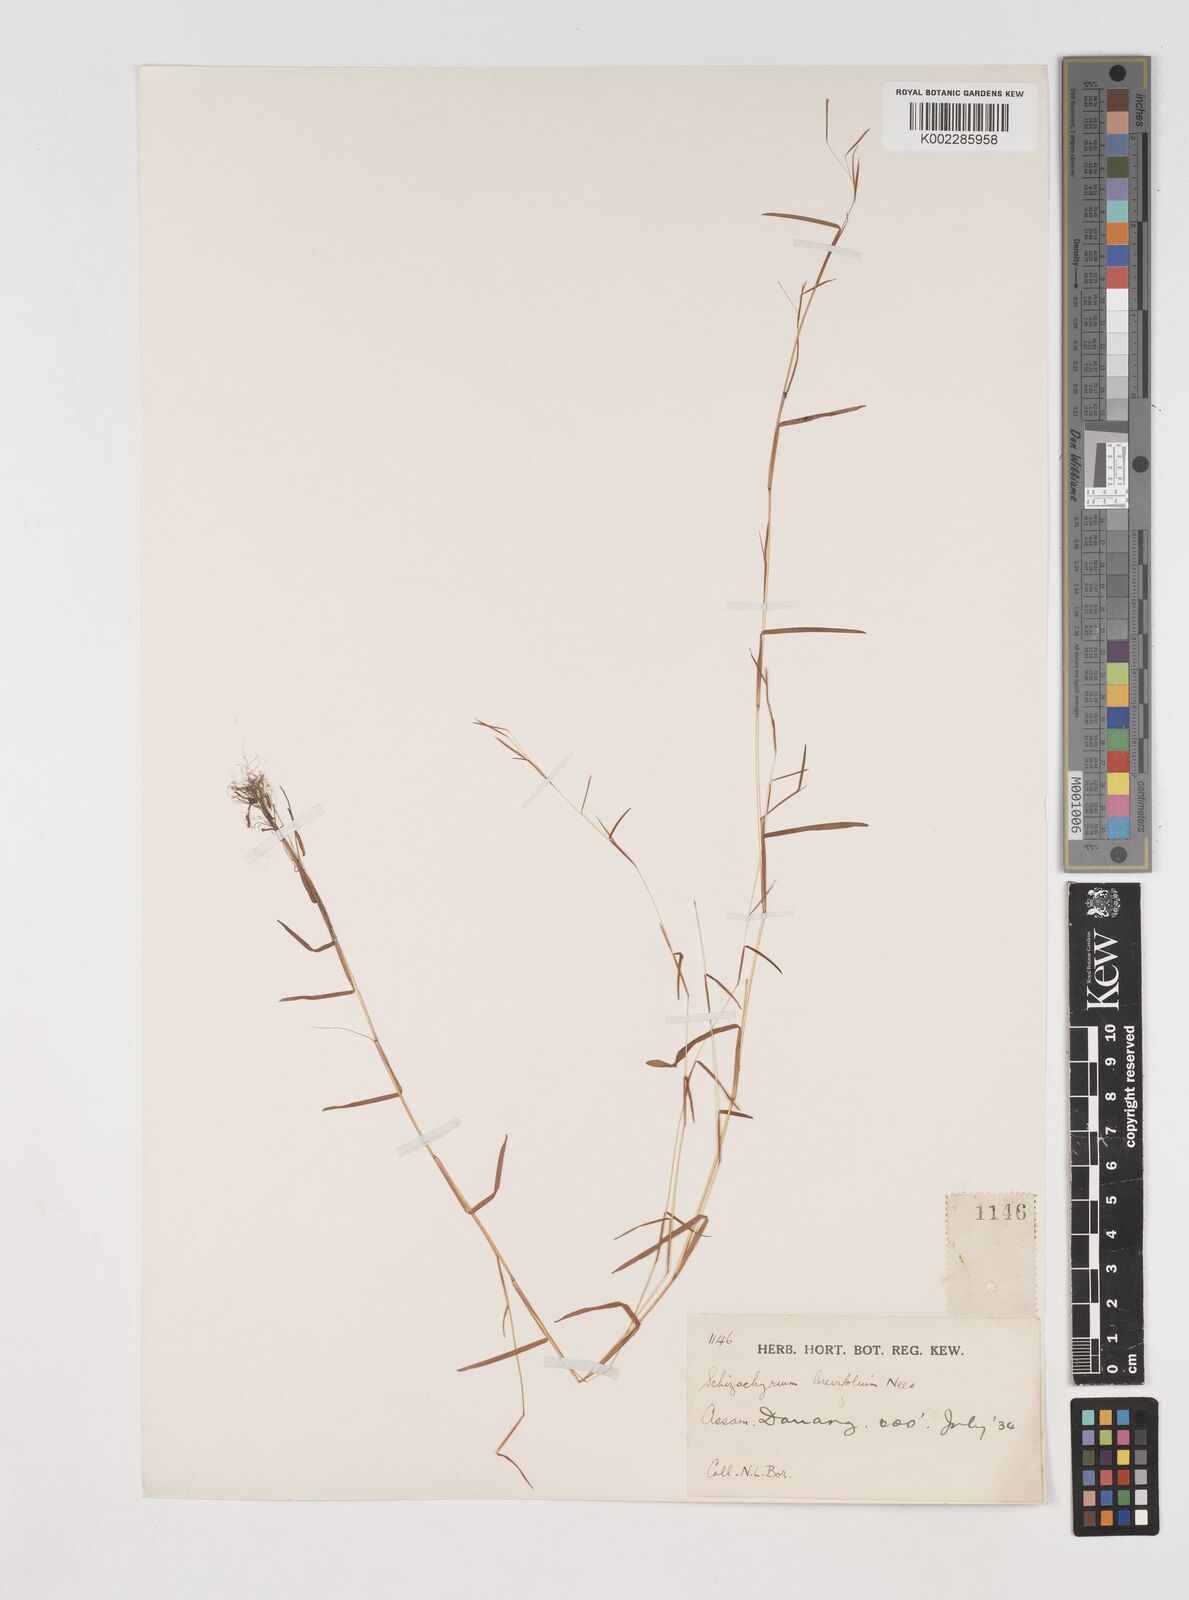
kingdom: Plantae
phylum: Tracheophyta
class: Liliopsida
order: Poales
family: Poaceae
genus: Schizachyrium
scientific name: Schizachyrium brevifolium
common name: Serillo dulce
